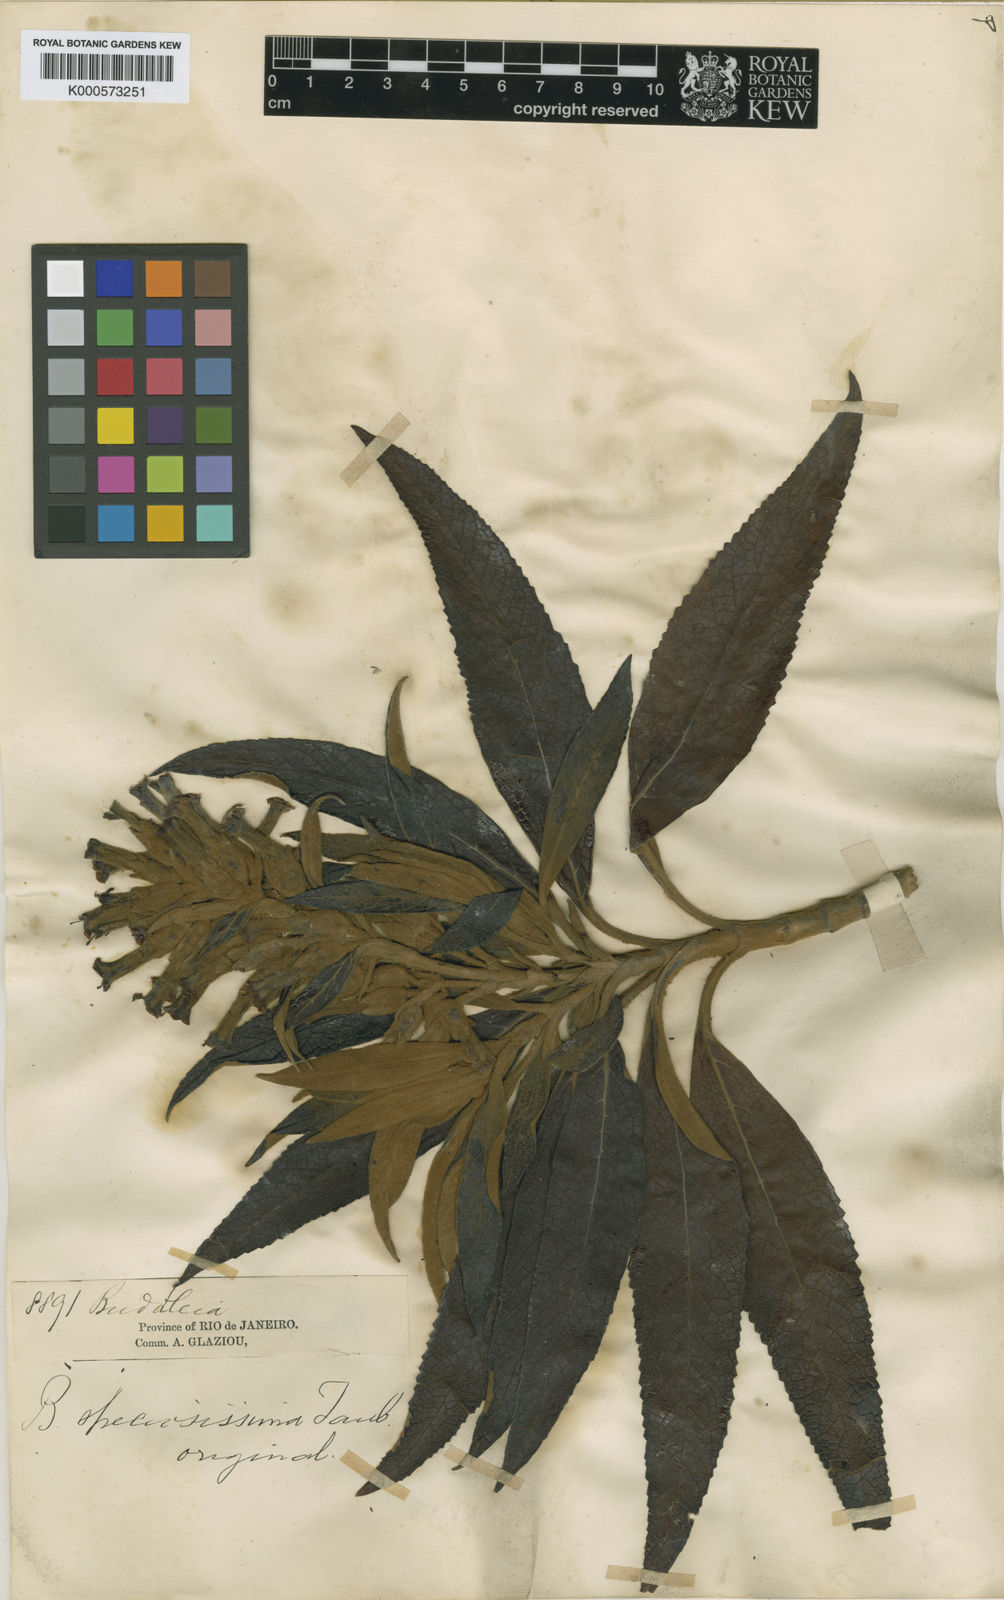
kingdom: Plantae
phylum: Tracheophyta
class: Magnoliopsida
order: Lamiales
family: Scrophulariaceae
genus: Buddleja
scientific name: Buddleja speciosissima
